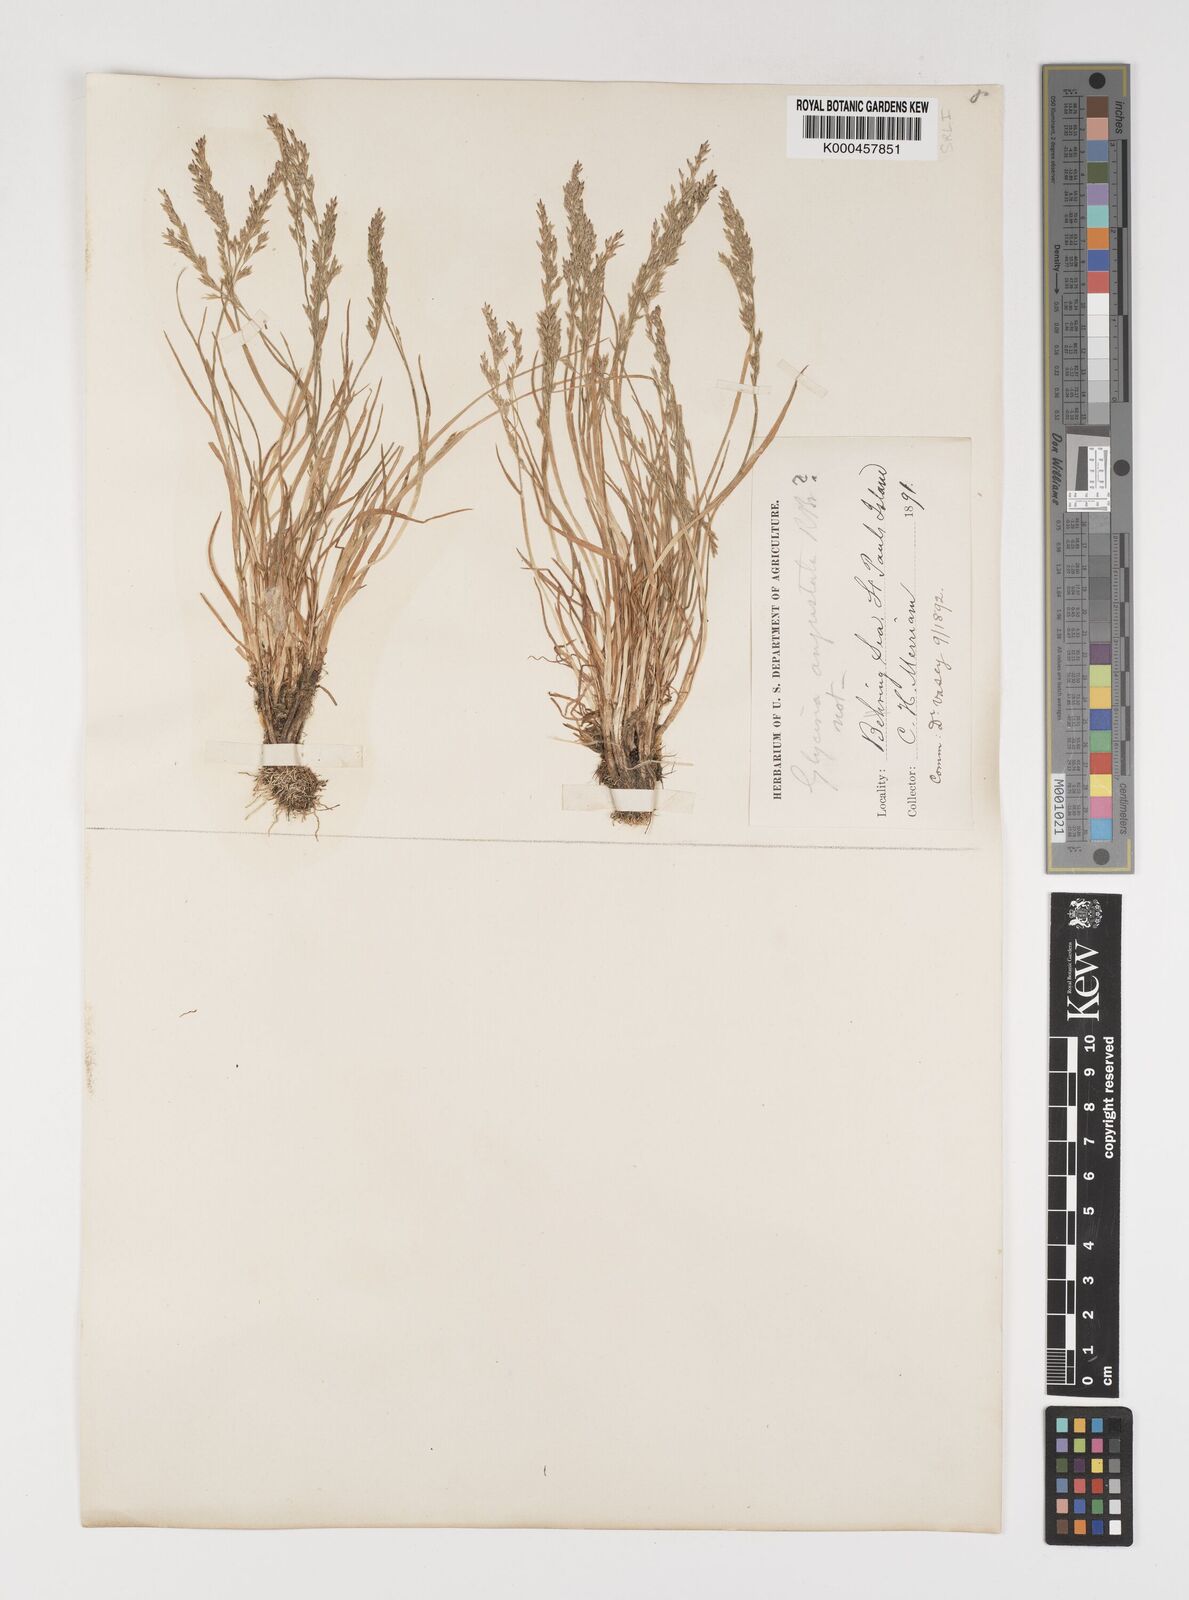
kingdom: Plantae
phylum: Tracheophyta
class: Liliopsida
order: Poales
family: Poaceae
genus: Puccinellia
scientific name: Puccinellia angustata
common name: Narrow alkaligrass
